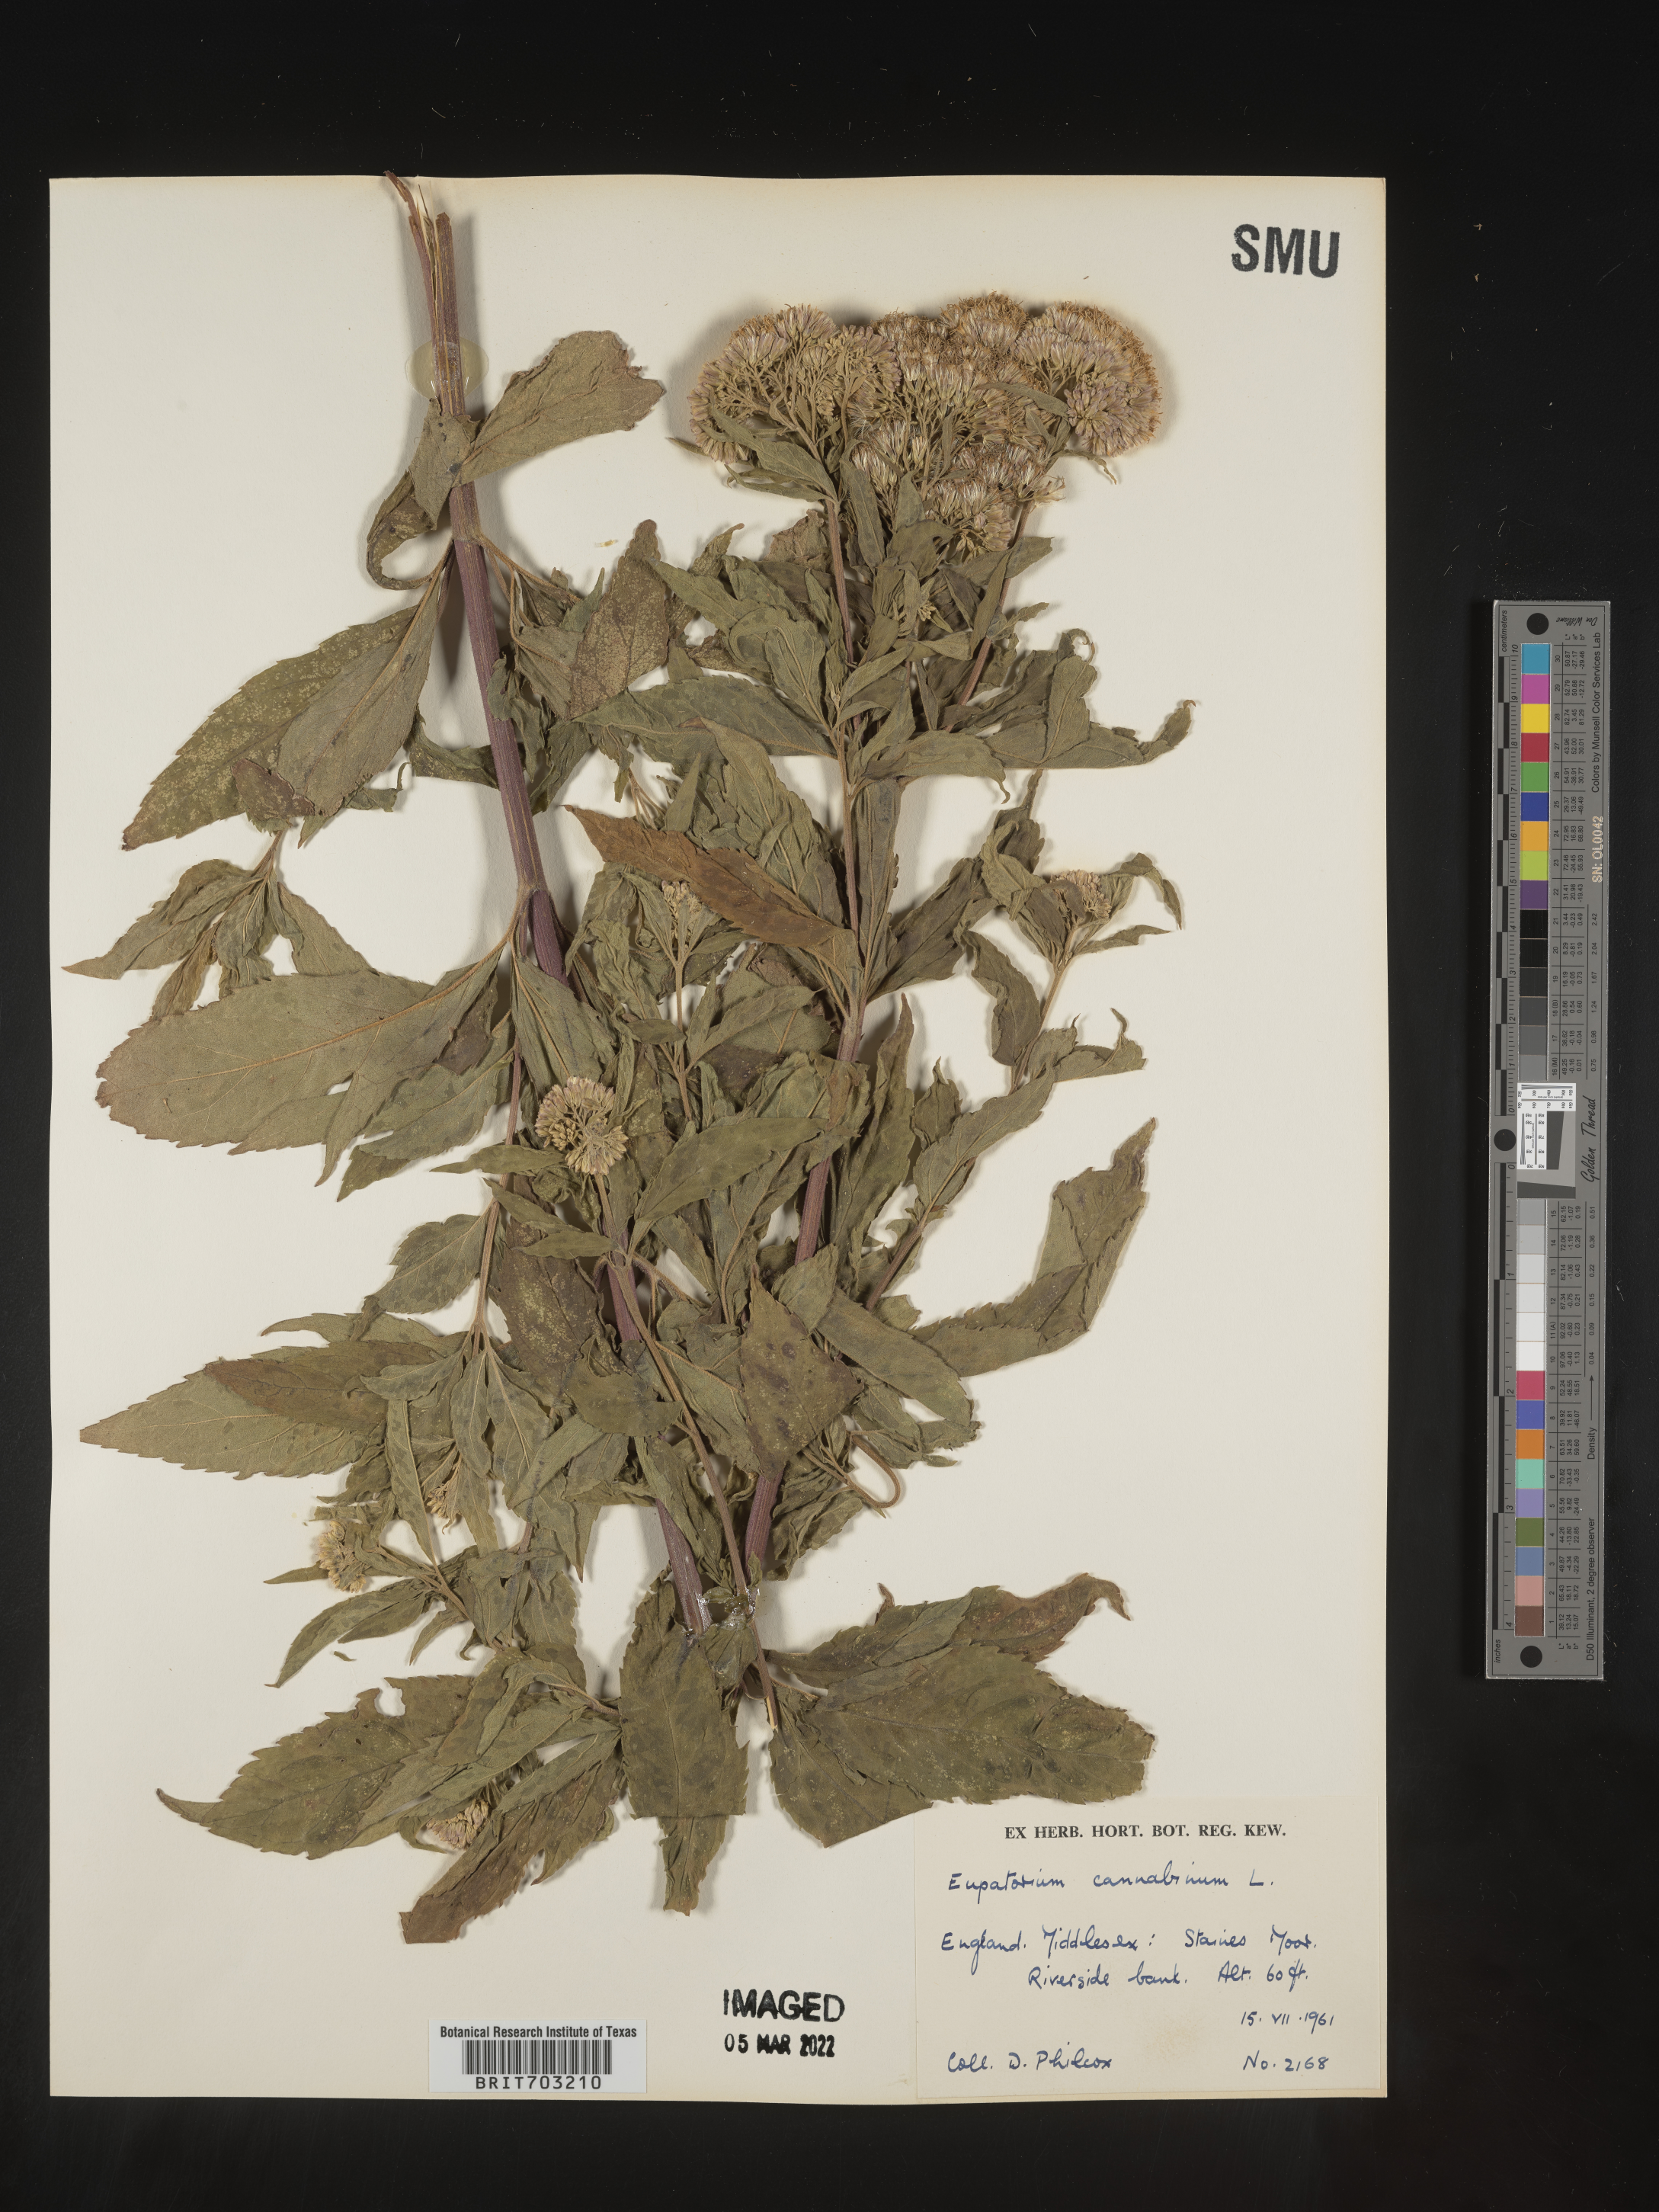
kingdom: Plantae
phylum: Tracheophyta
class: Magnoliopsida
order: Asterales
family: Asteraceae
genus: Eupatorium
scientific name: Eupatorium
